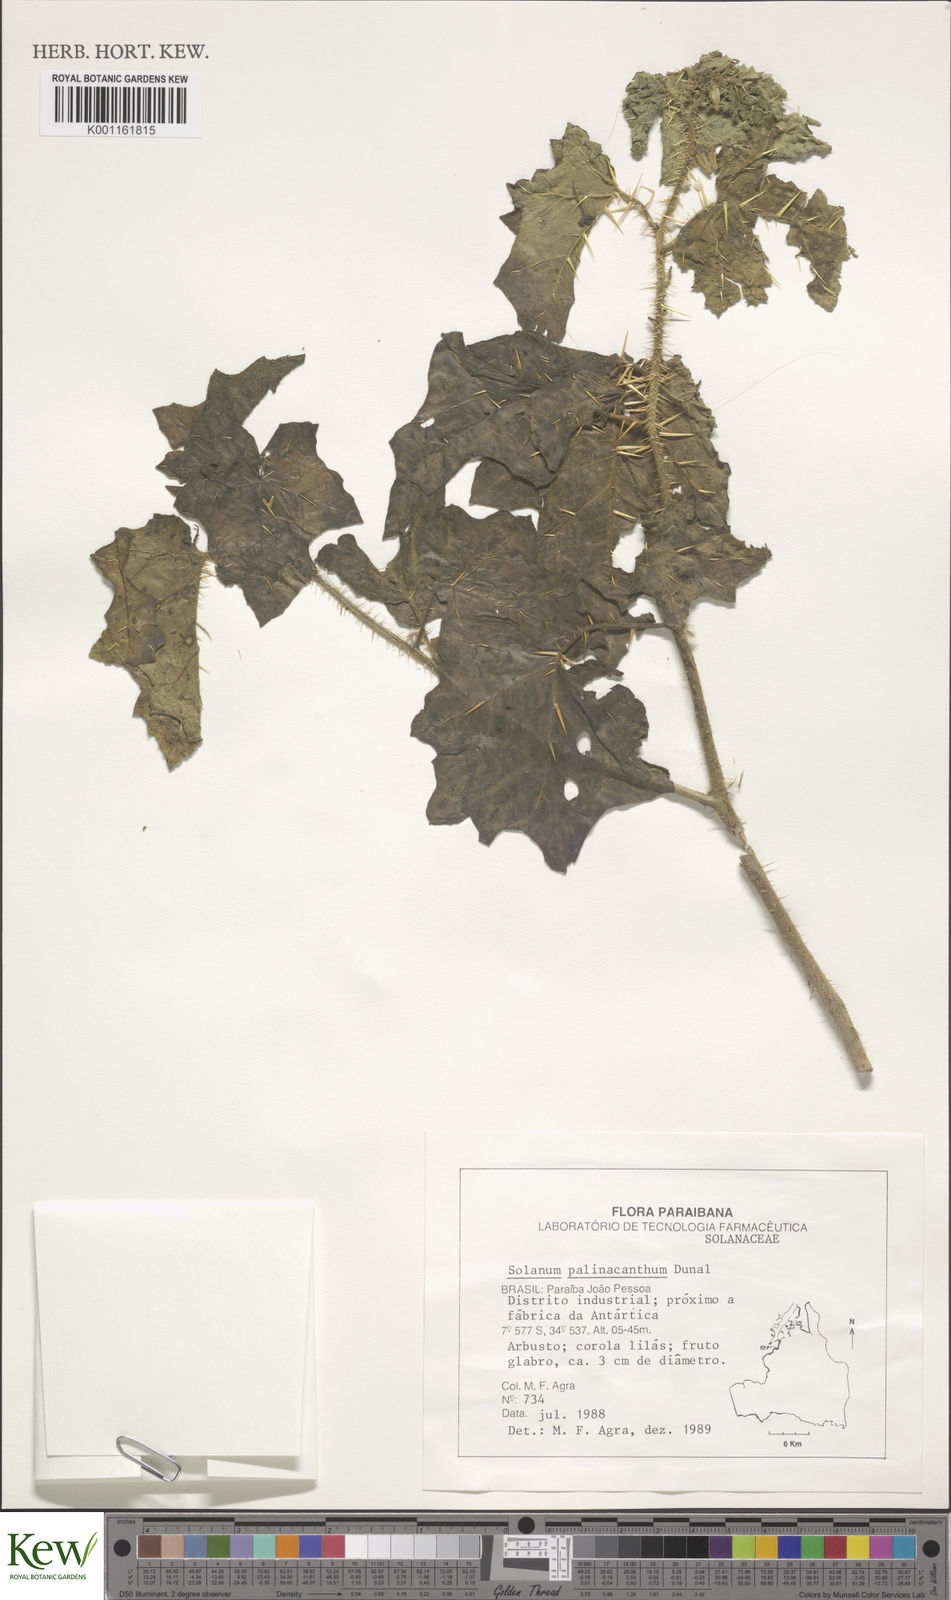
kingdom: Plantae
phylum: Tracheophyta
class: Magnoliopsida
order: Solanales
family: Solanaceae
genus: Solanum
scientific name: Solanum palinacanthum
